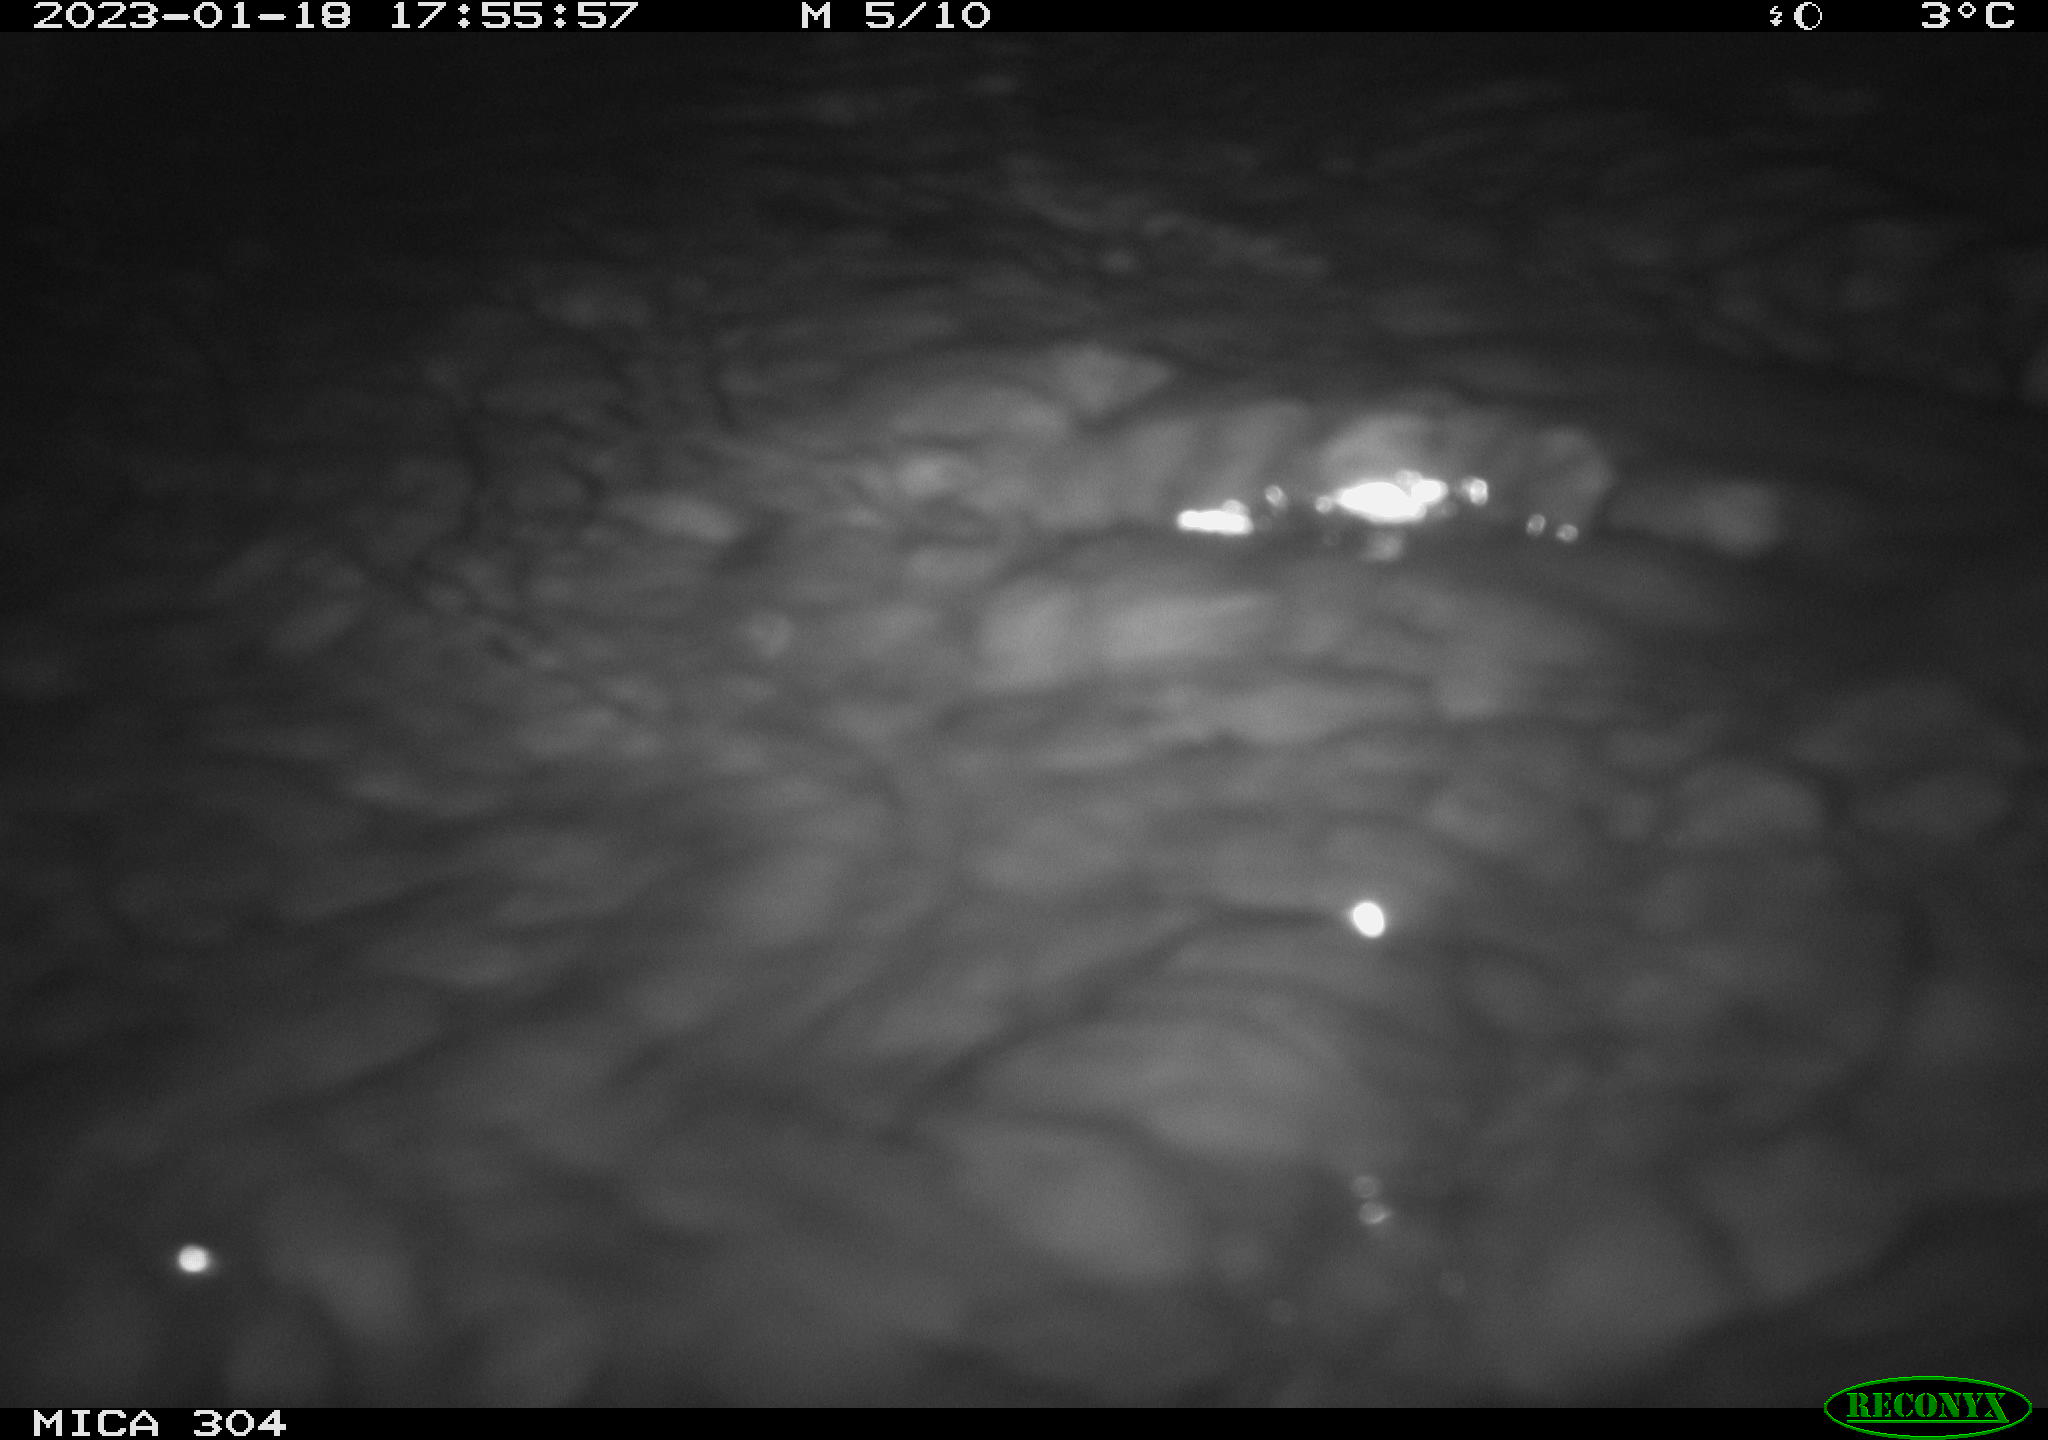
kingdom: Animalia
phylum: Chordata
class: Mammalia
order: Rodentia
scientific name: Rodentia
